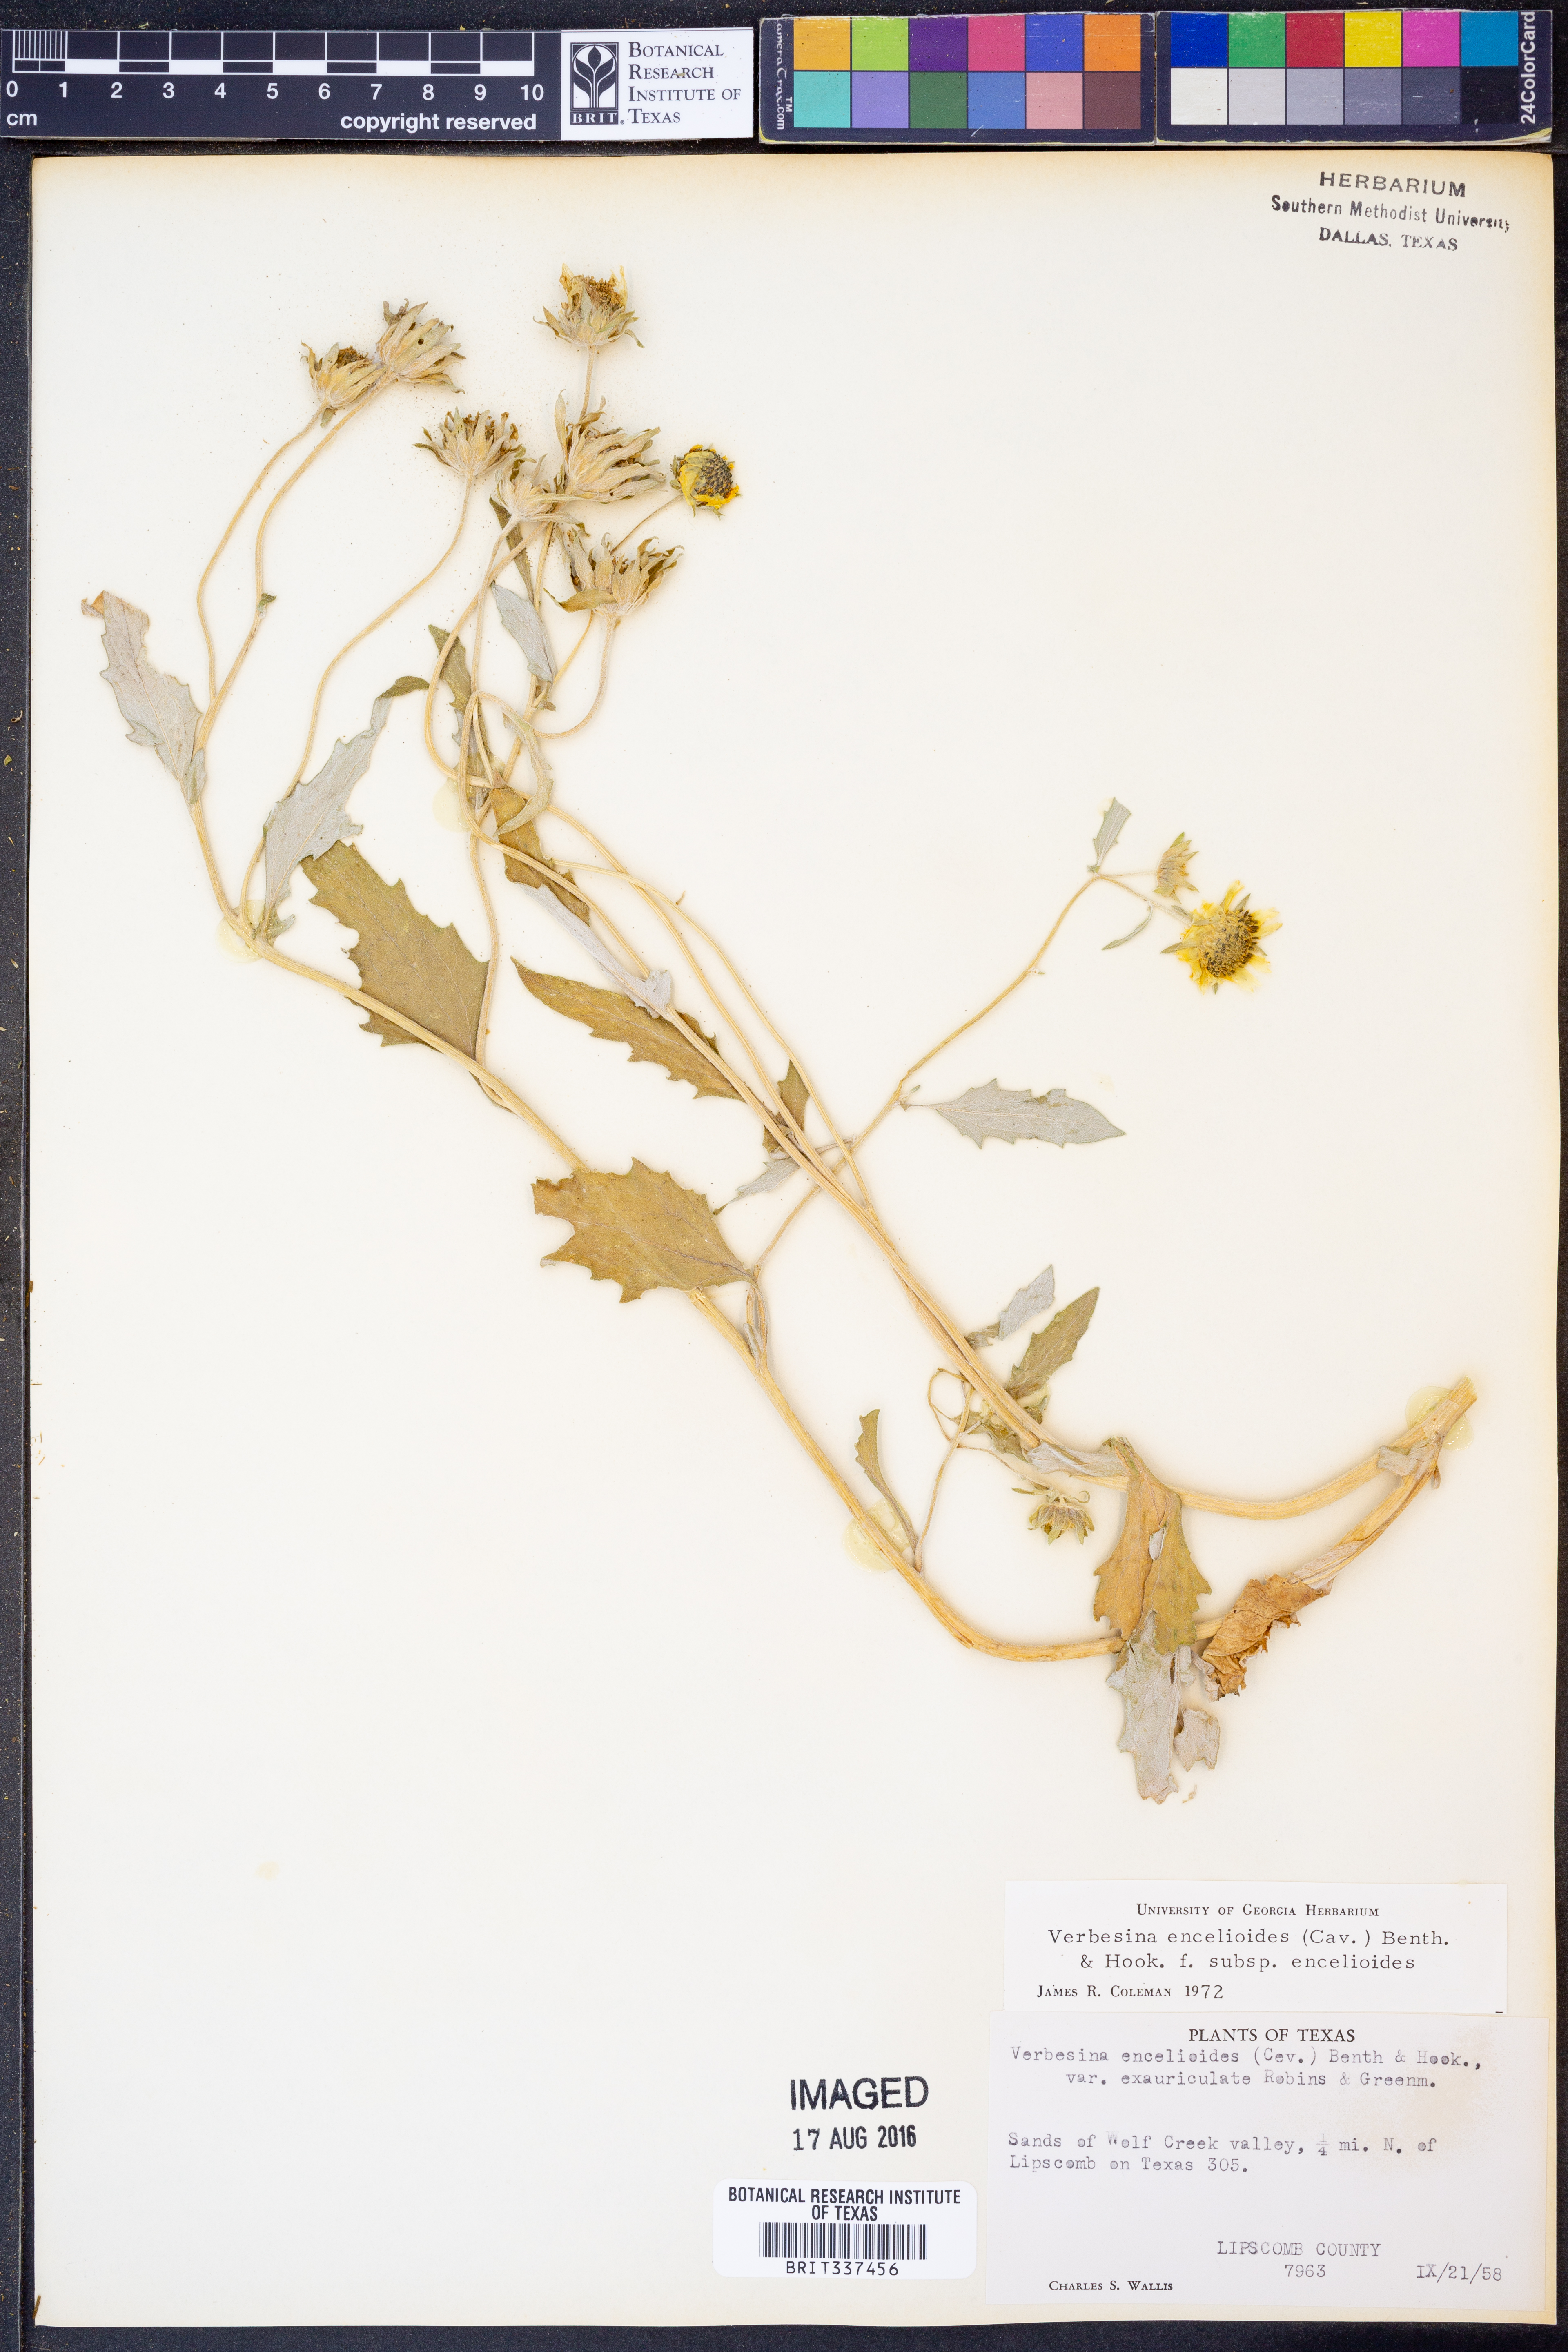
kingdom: Plantae
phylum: Tracheophyta
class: Magnoliopsida
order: Asterales
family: Asteraceae
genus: Verbesina
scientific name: Verbesina encelioides
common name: Golden crownbeard
